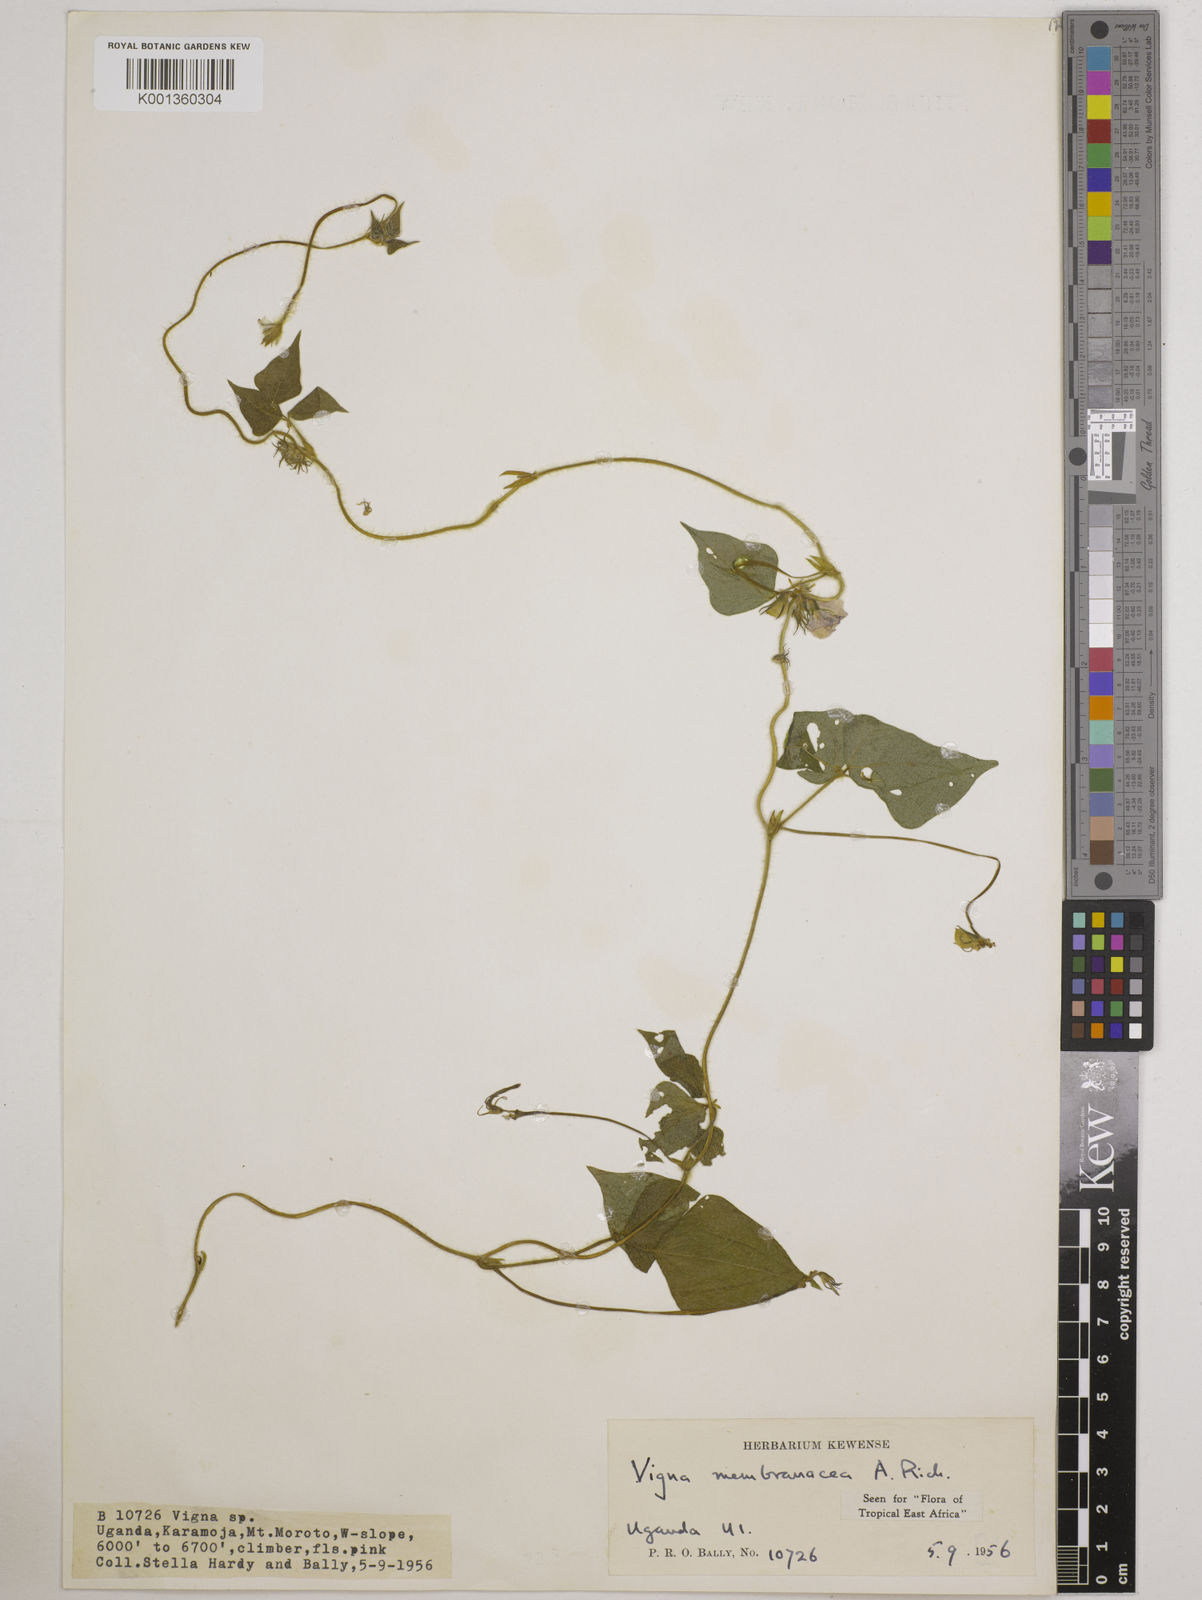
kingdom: Plantae
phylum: Tracheophyta
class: Magnoliopsida
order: Fabales
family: Fabaceae
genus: Vigna
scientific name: Vigna membranacea
